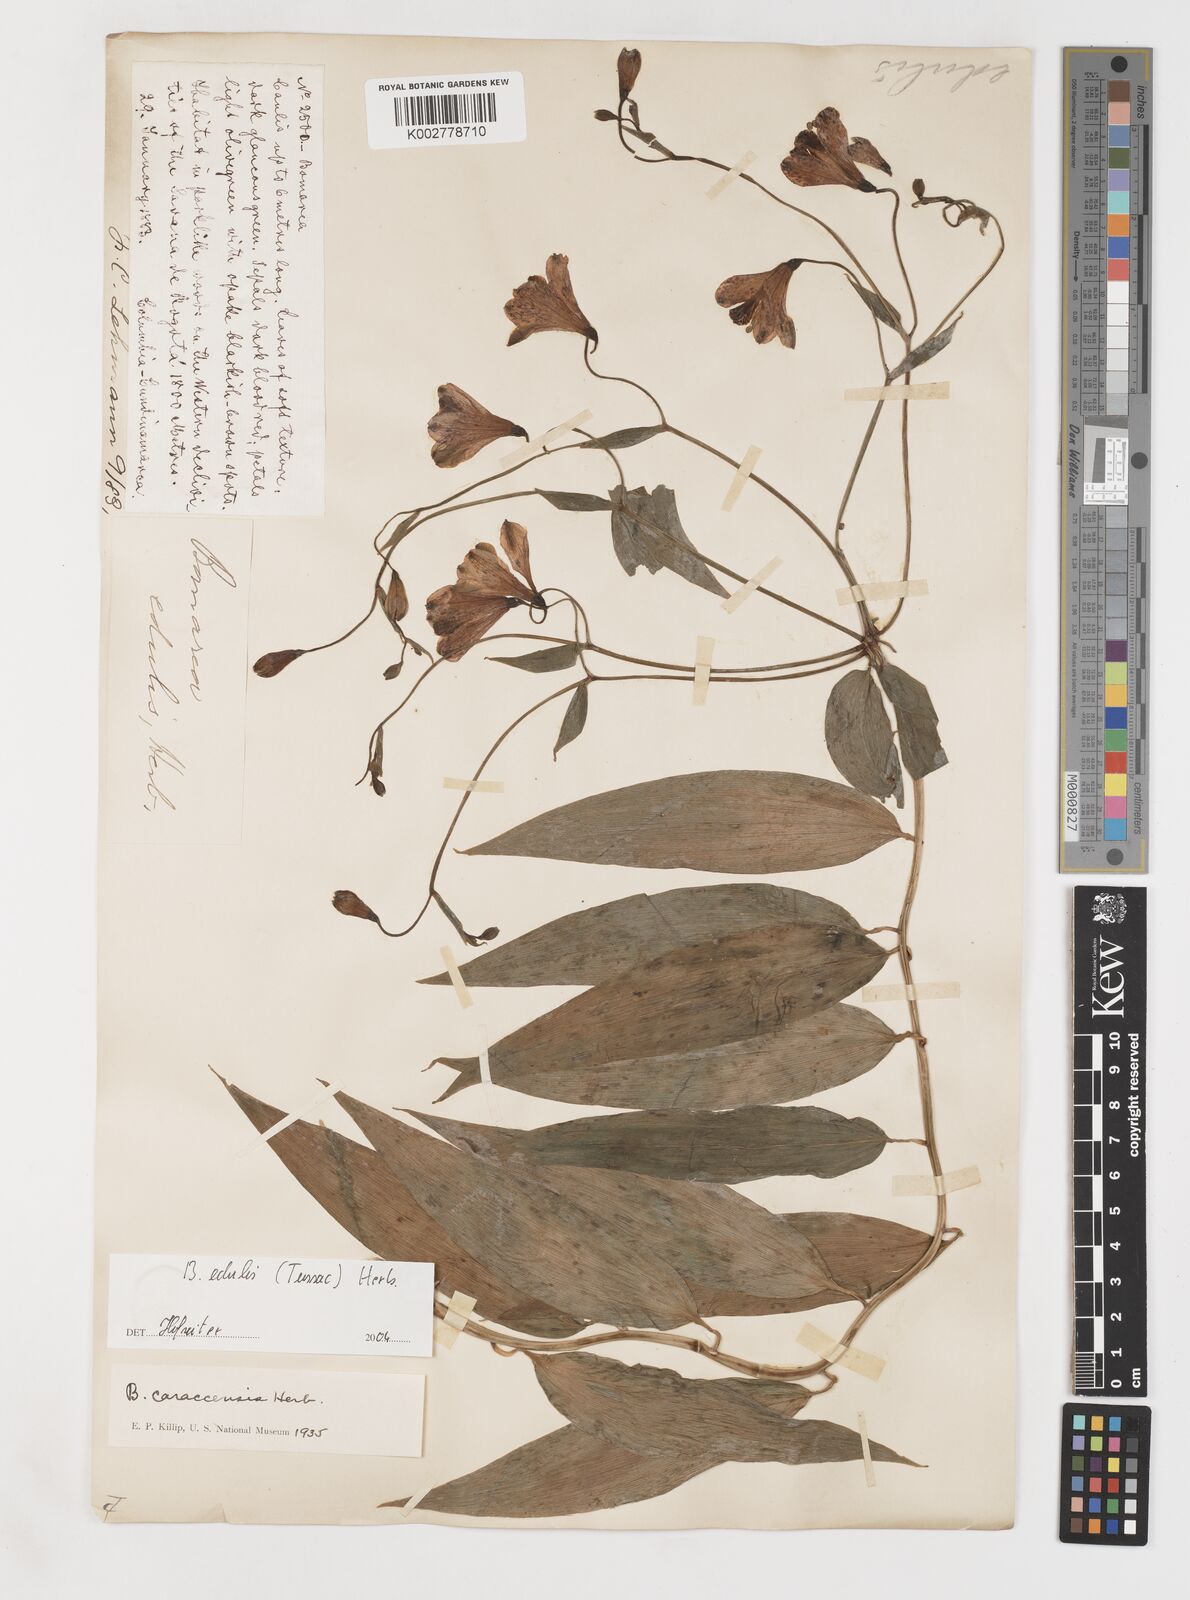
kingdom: Plantae
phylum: Tracheophyta
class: Liliopsida
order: Liliales
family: Alstroemeriaceae
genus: Bomarea
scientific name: Bomarea edulis
